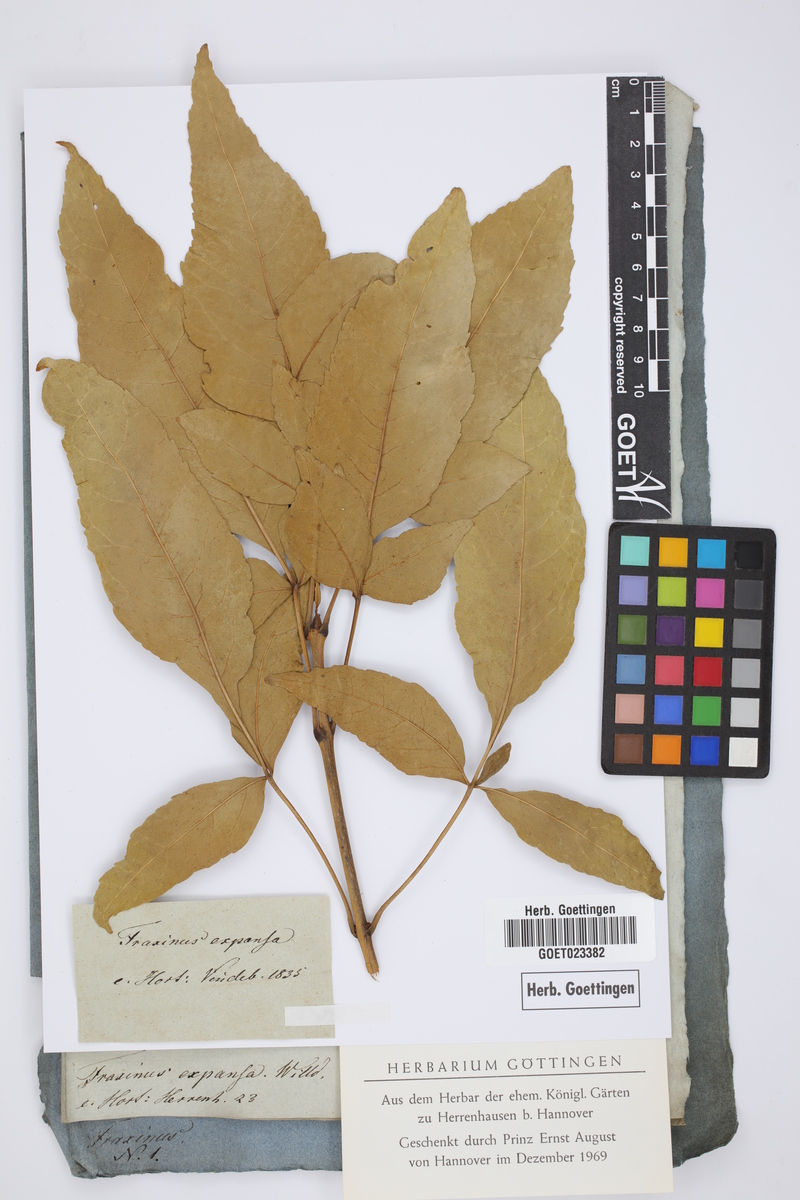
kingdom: Plantae
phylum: Tracheophyta
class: Magnoliopsida
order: Lamiales
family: Oleaceae
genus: Fraxinus
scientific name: Fraxinus pennsylvanica
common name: Green ash
